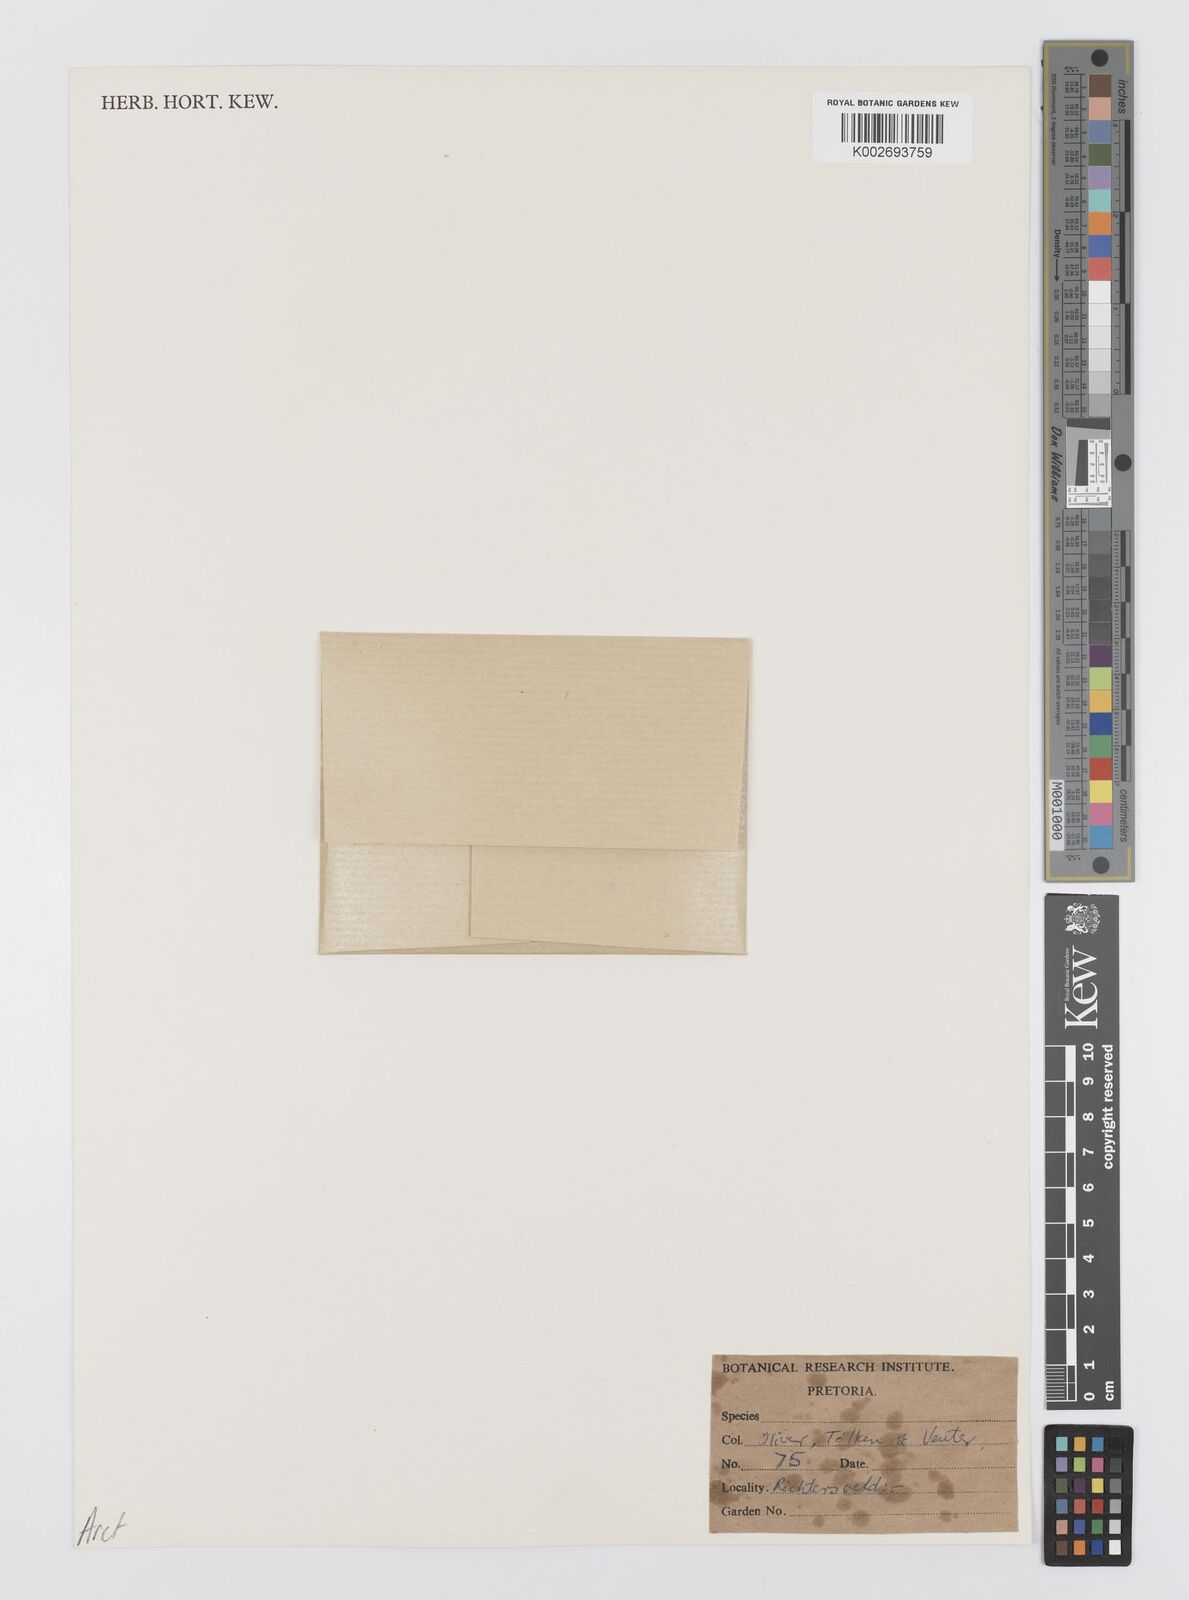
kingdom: Plantae
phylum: Tracheophyta
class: Magnoliopsida
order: Asterales
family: Asteraceae
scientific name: Asteraceae
